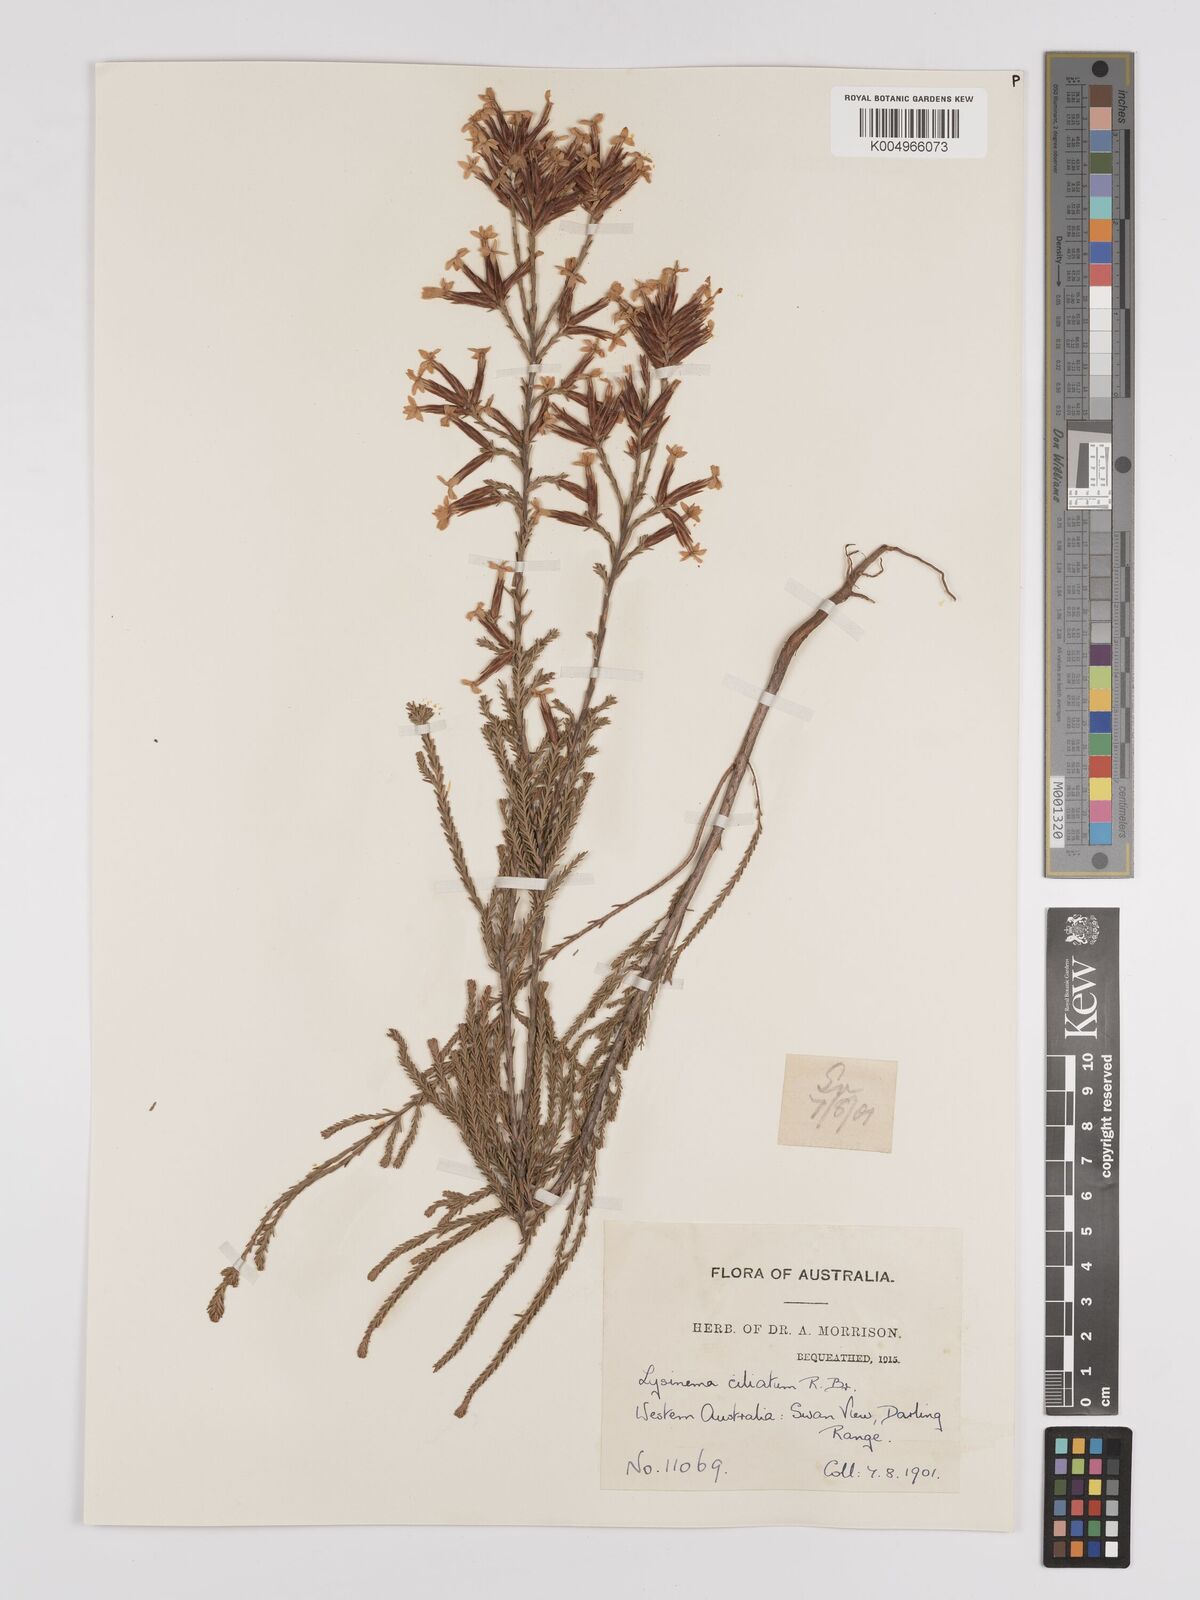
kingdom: Plantae
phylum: Tracheophyta
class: Magnoliopsida
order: Ericales
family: Ericaceae
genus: Lysinema
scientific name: Lysinema ciliatum
